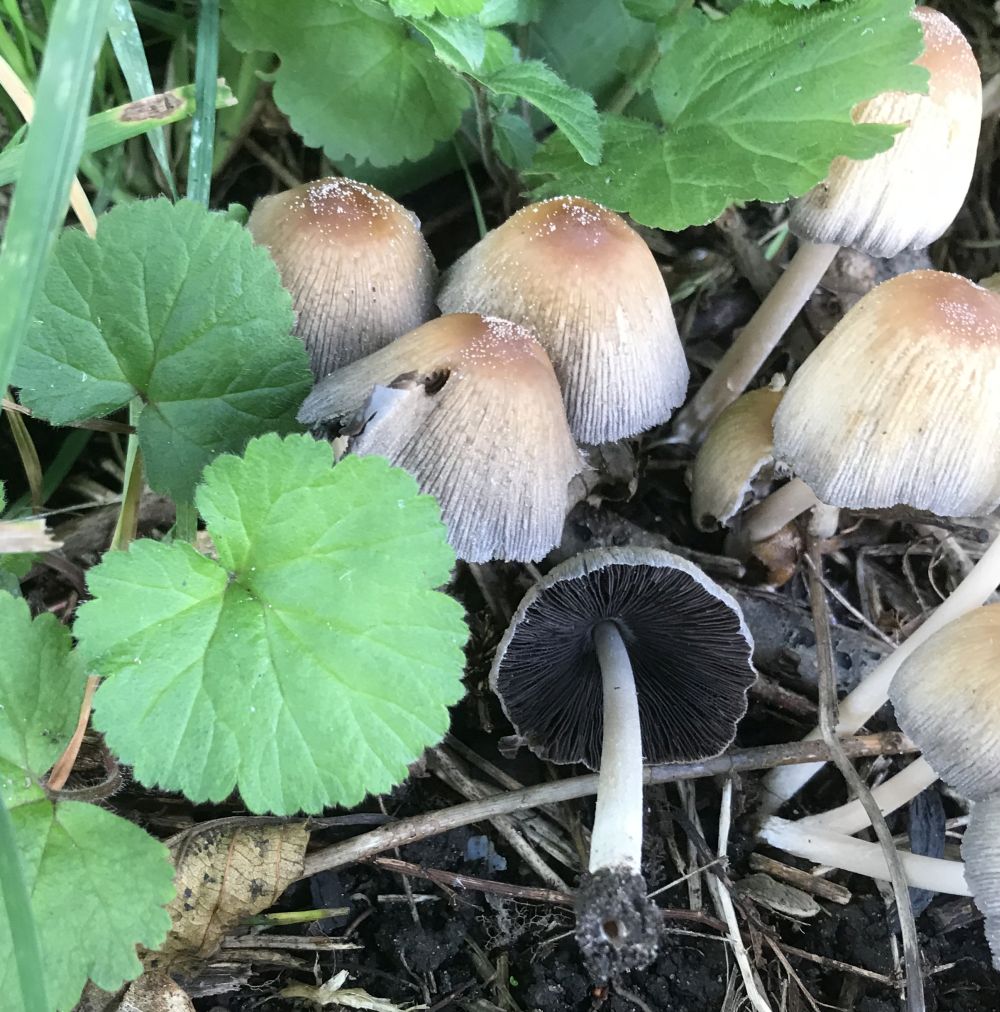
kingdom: Fungi
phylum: Basidiomycota
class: Agaricomycetes
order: Agaricales
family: Psathyrellaceae
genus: Coprinellus
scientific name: Coprinellus micaceus
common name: glimmer-blækhat
